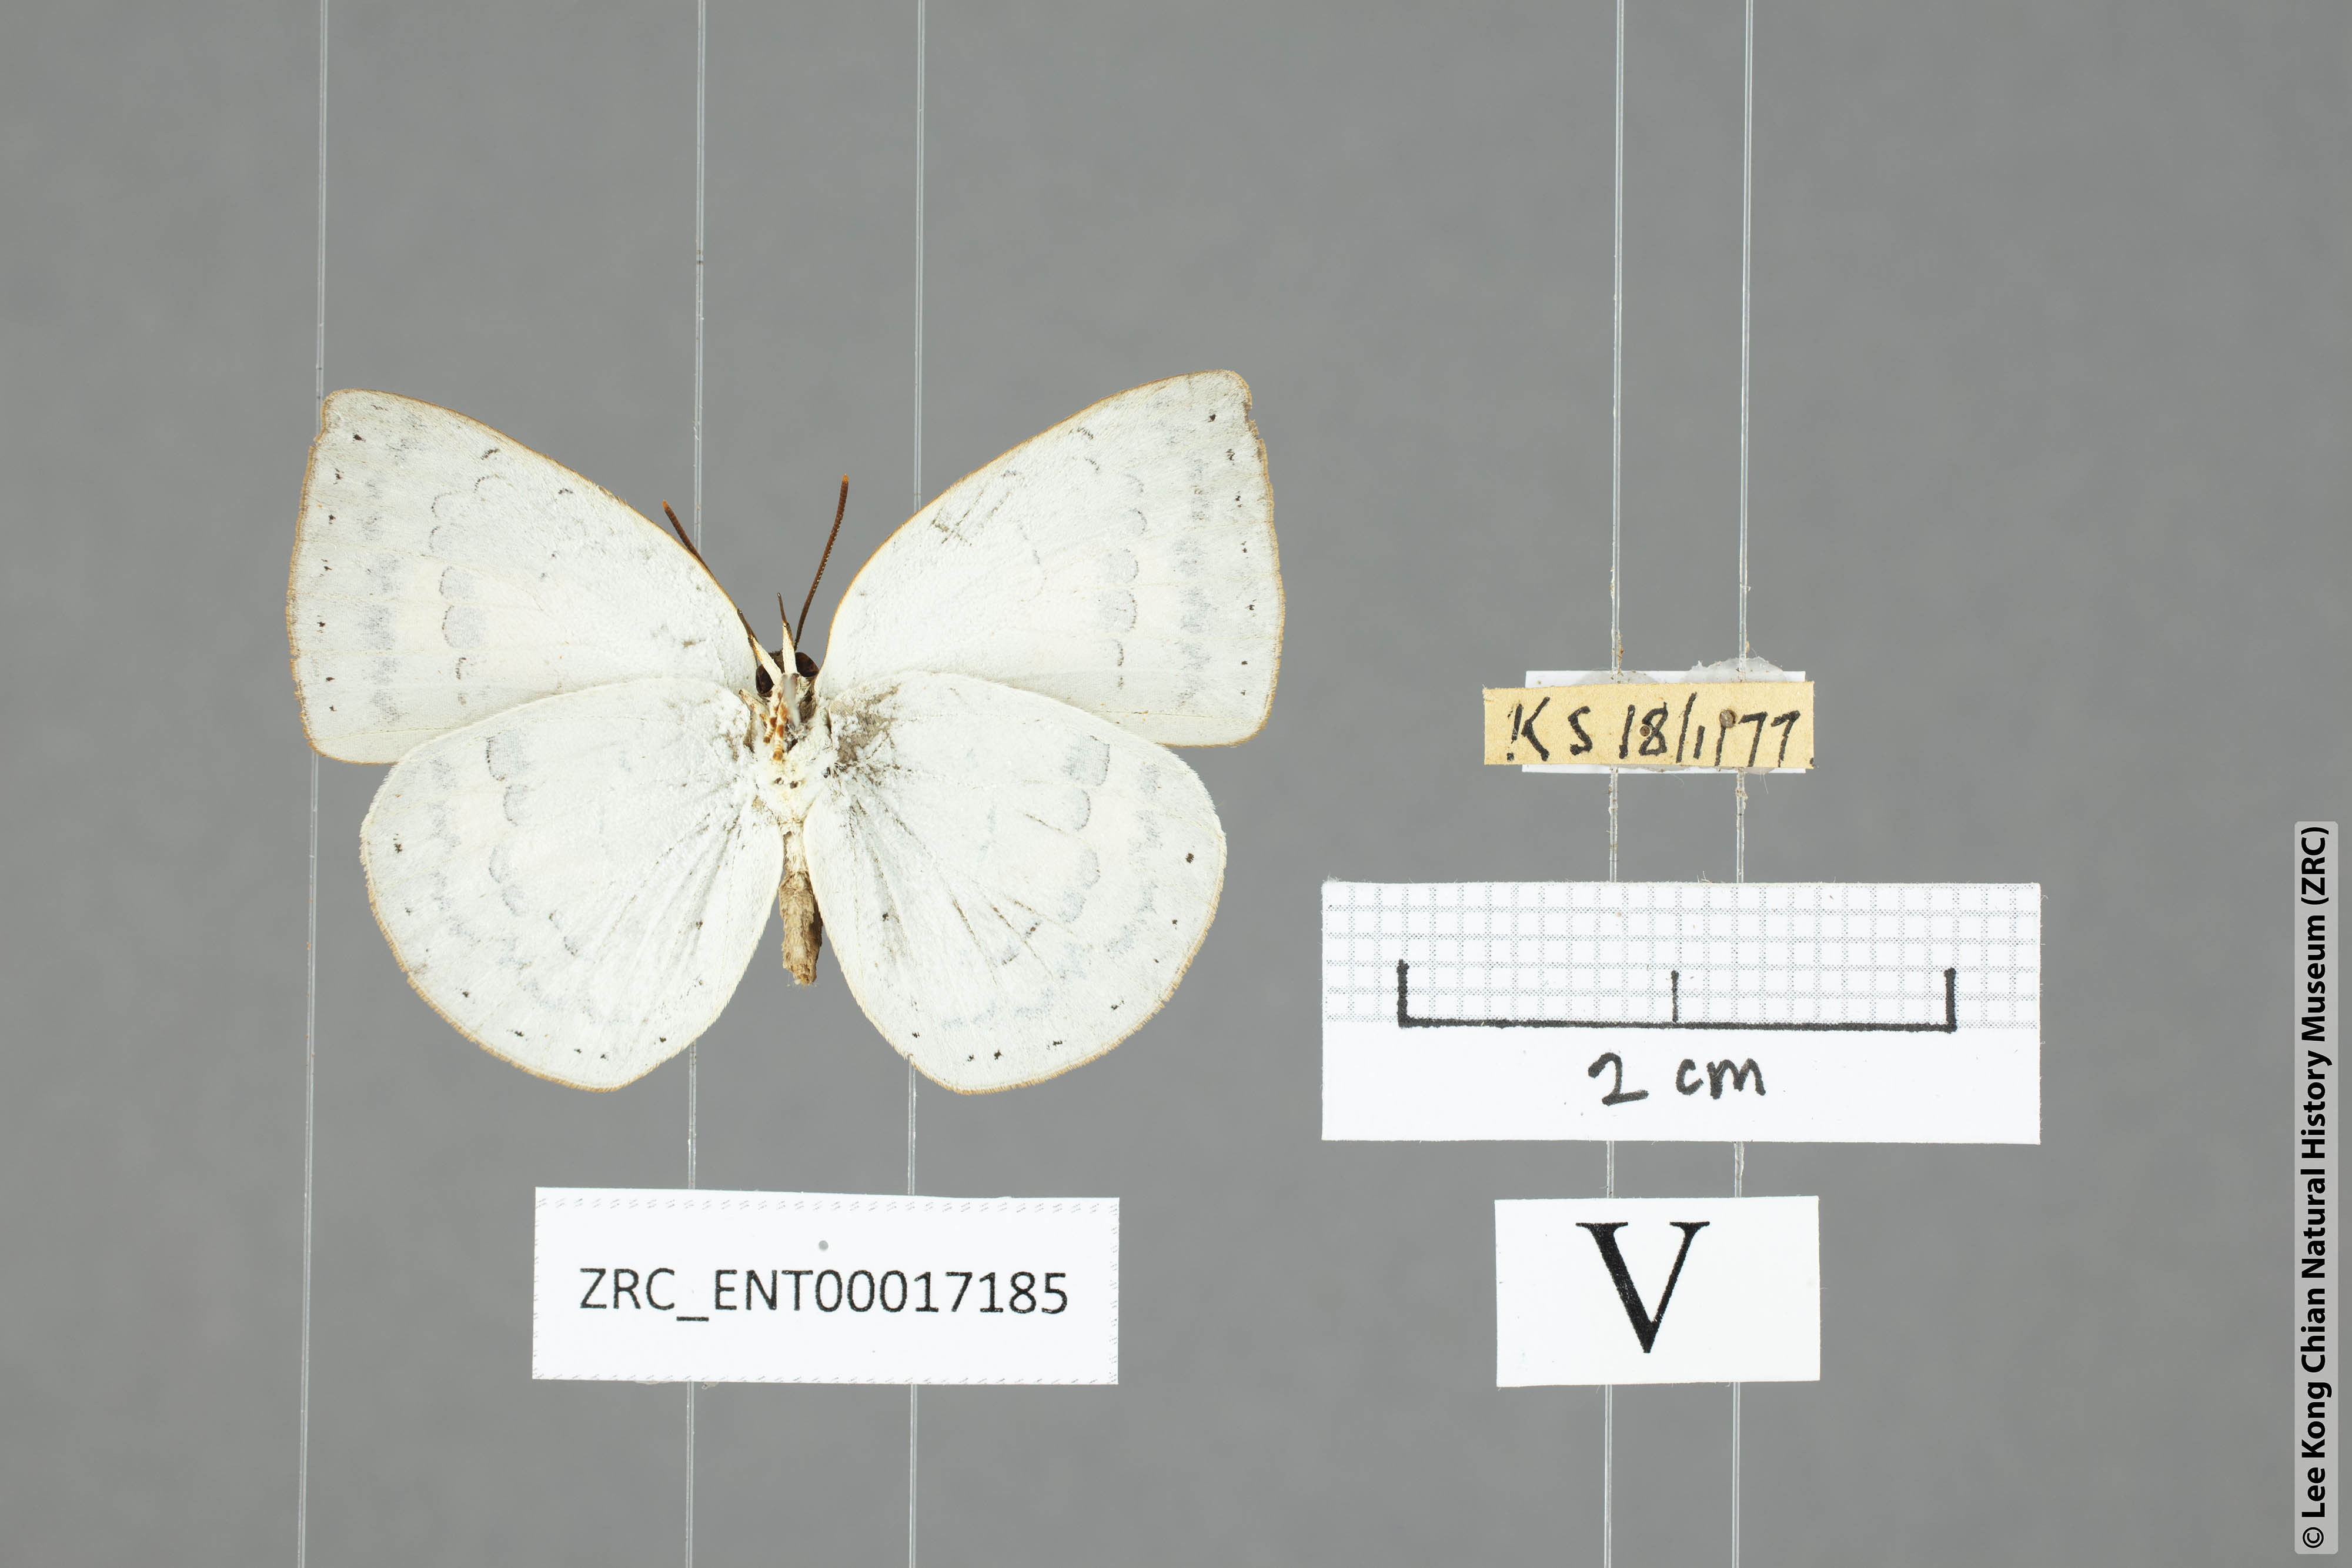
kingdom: Animalia
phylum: Arthropoda
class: Insecta
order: Lepidoptera
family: Lycaenidae
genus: Curetis
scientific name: Curetis saronis
